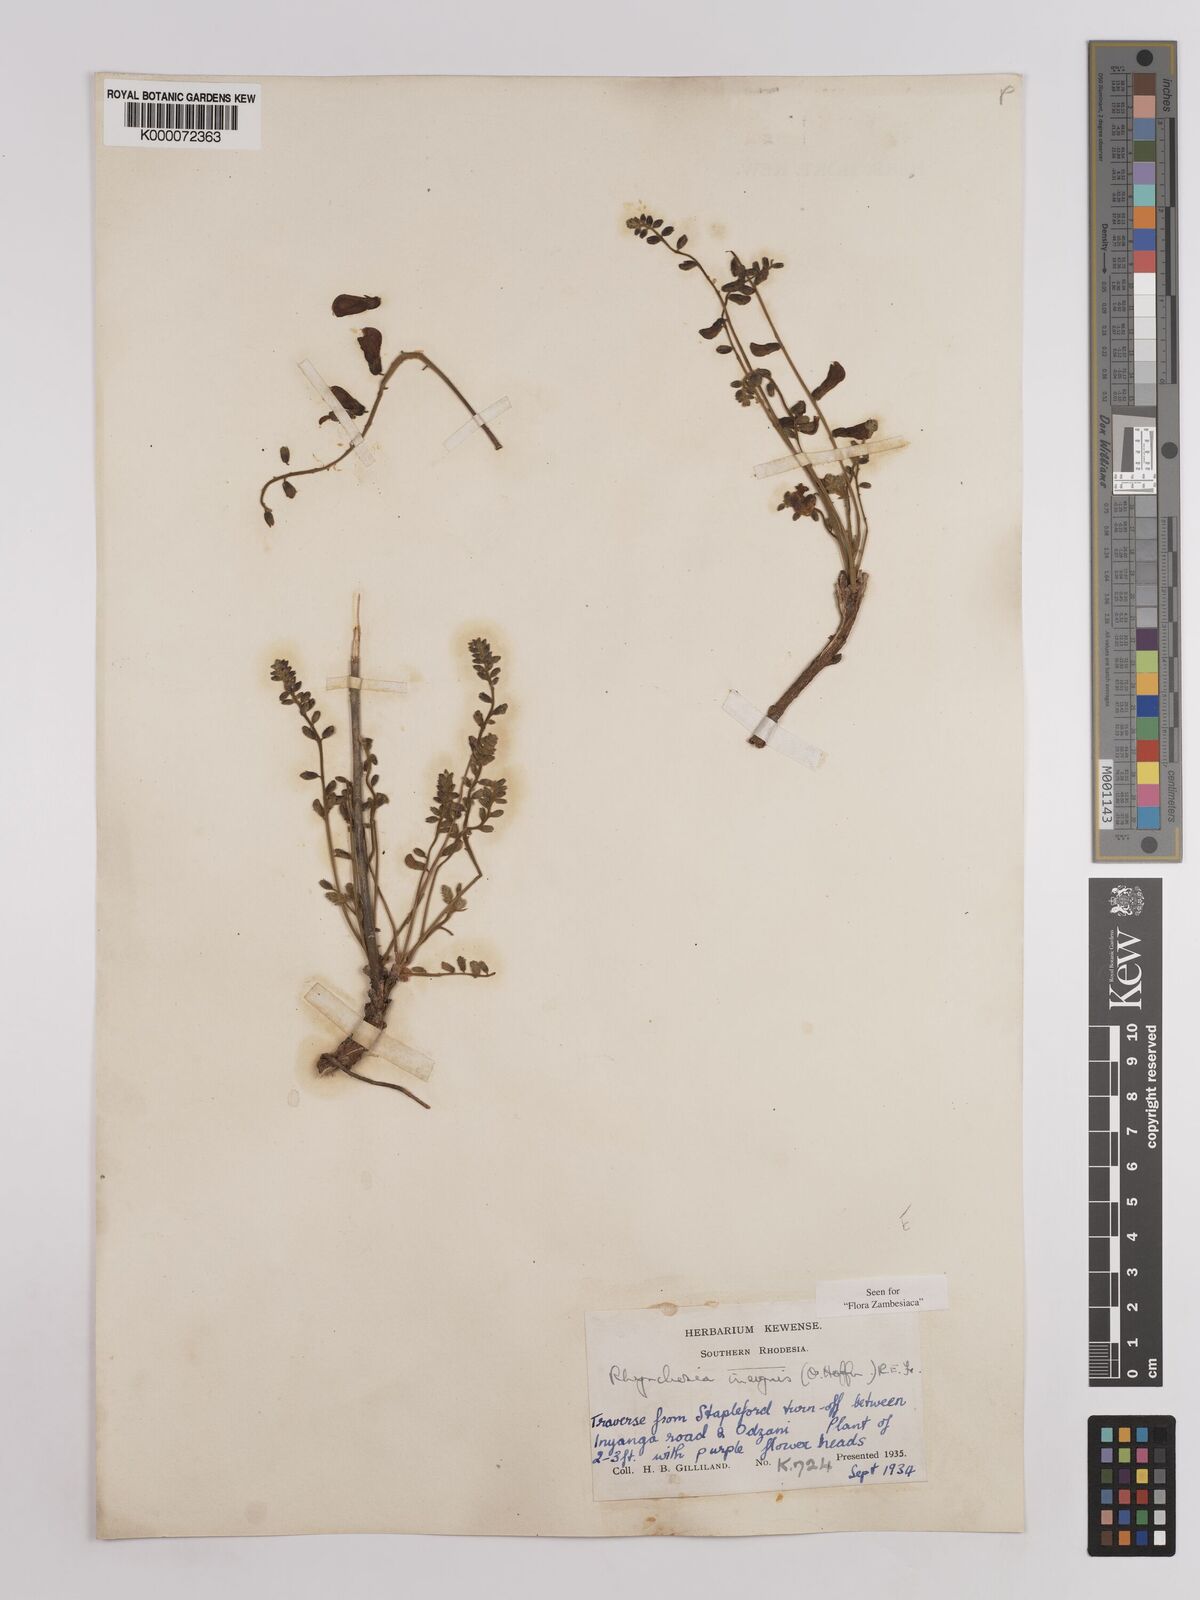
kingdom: Plantae
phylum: Tracheophyta
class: Magnoliopsida
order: Fabales
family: Fabaceae
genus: Rhynchosia
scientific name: Rhynchosia insignis
